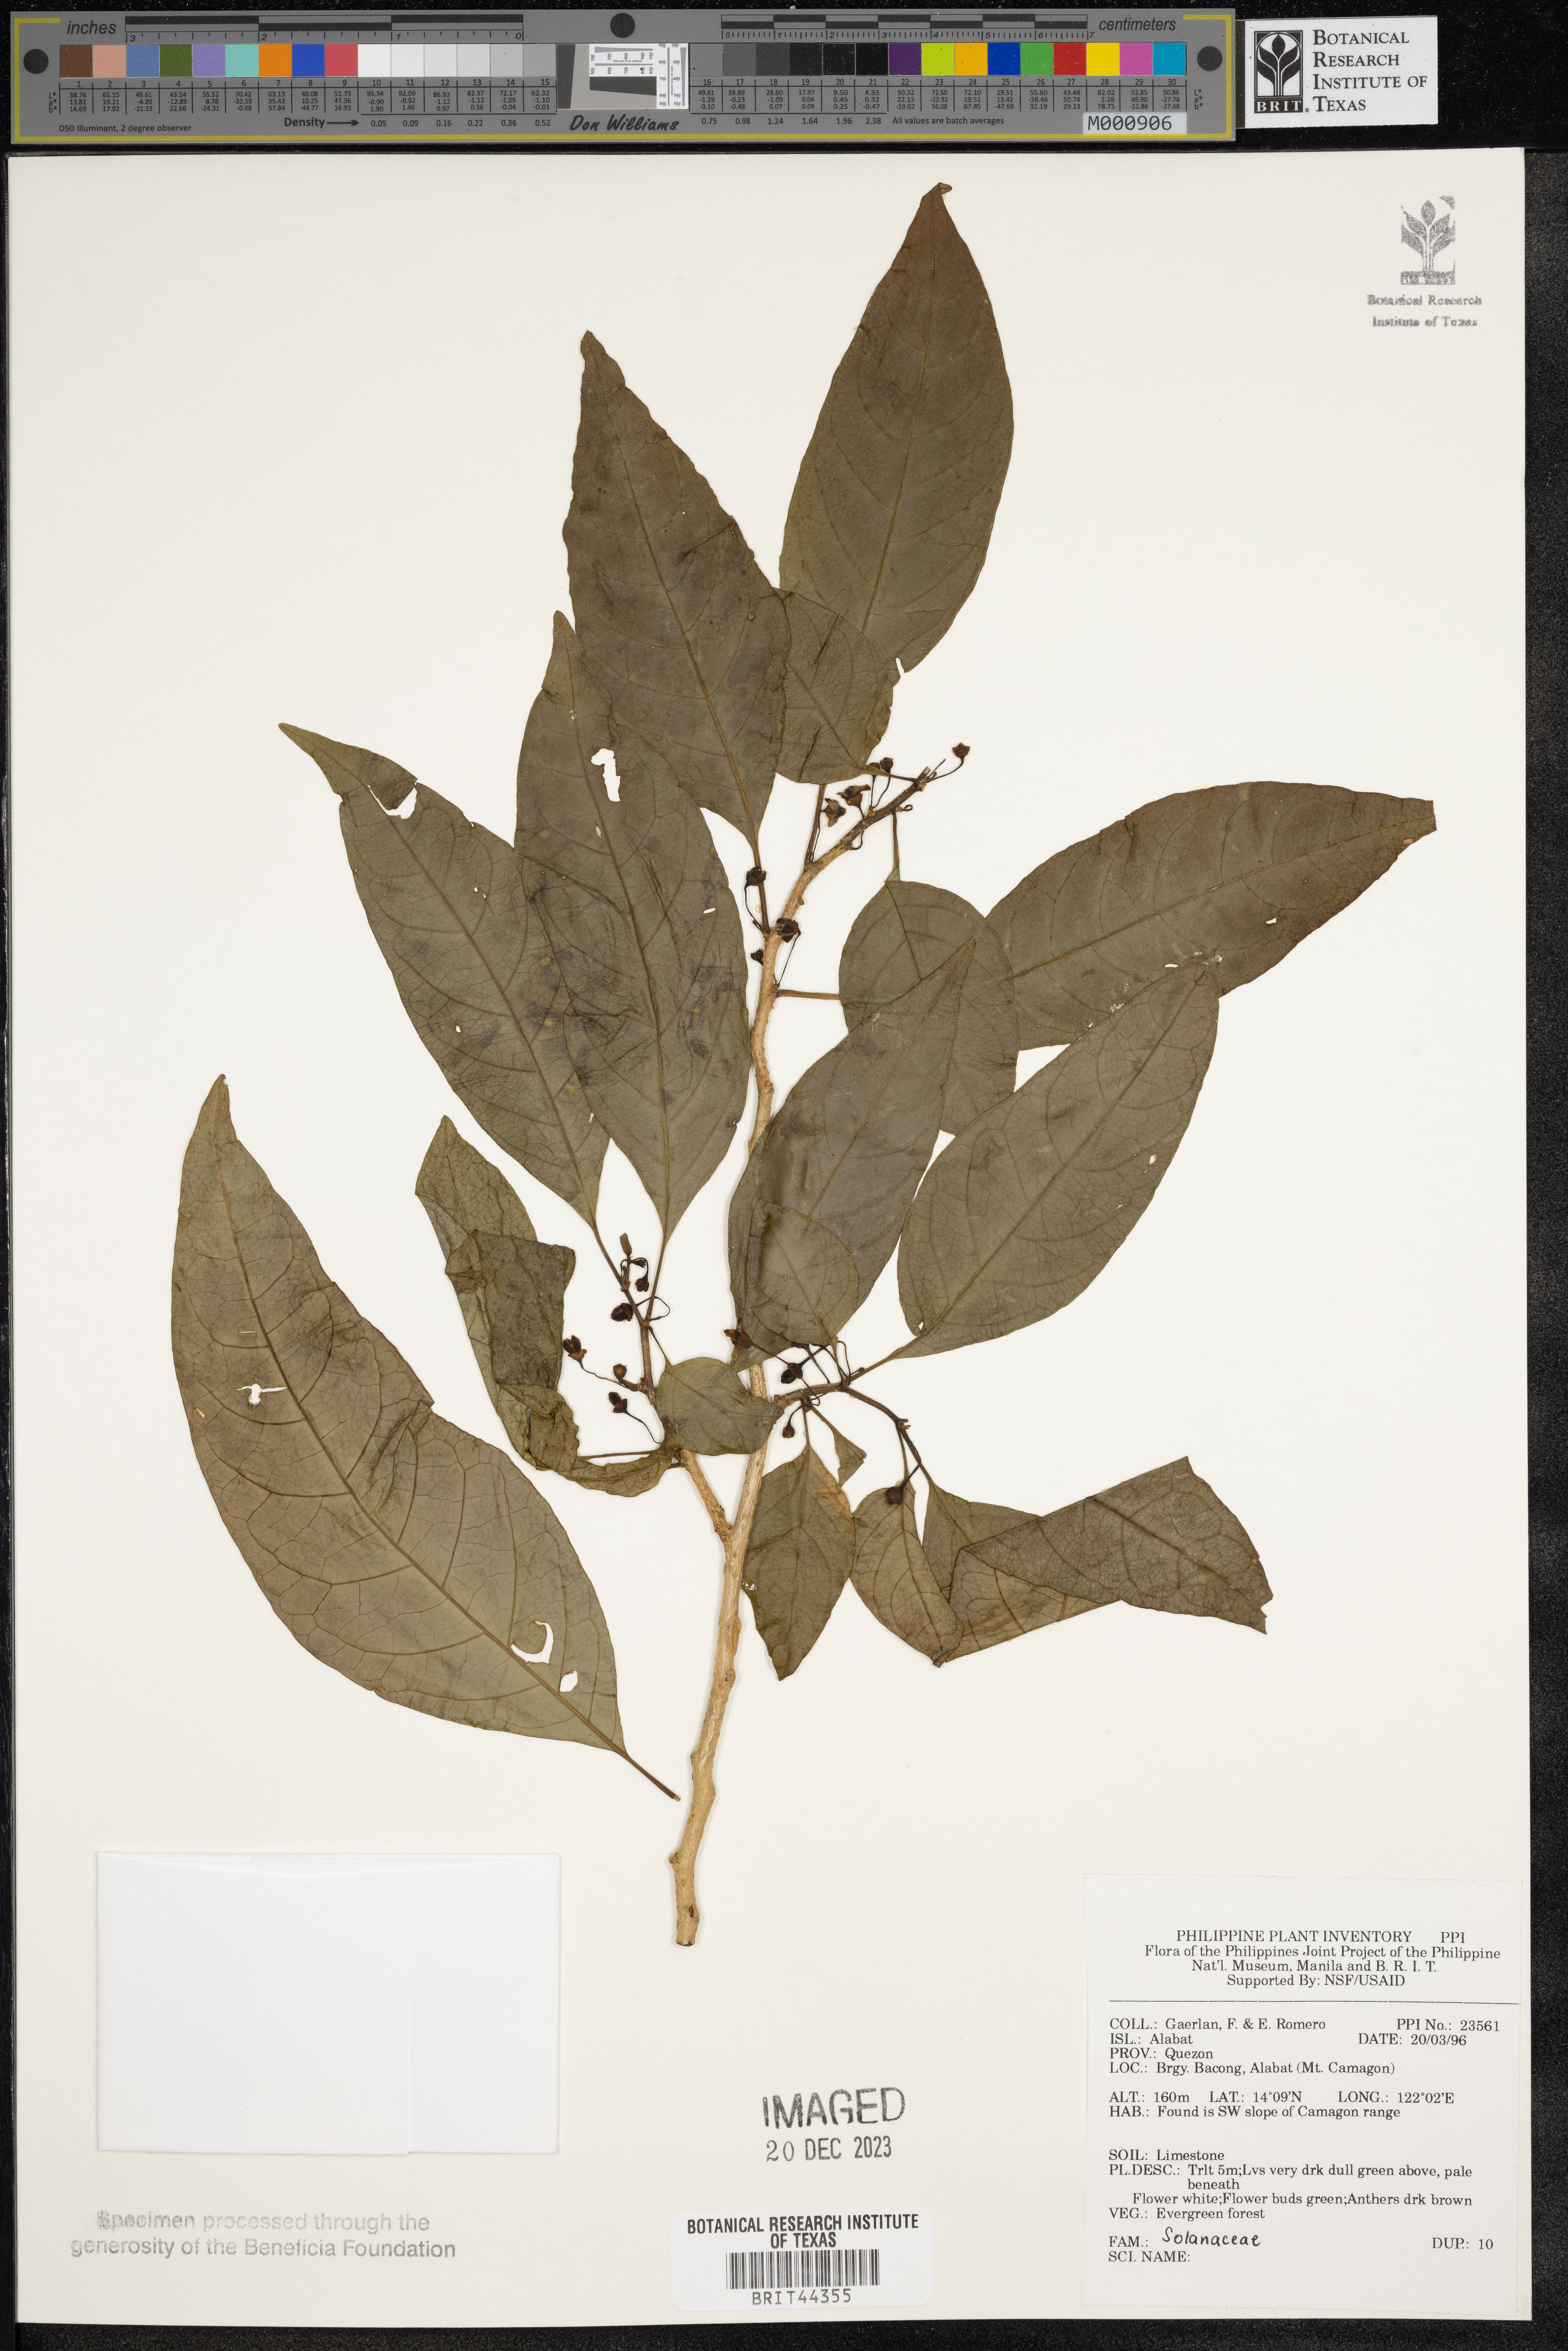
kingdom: Plantae
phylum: Tracheophyta
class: Magnoliopsida
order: Solanales
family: Solanaceae
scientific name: Solanaceae
